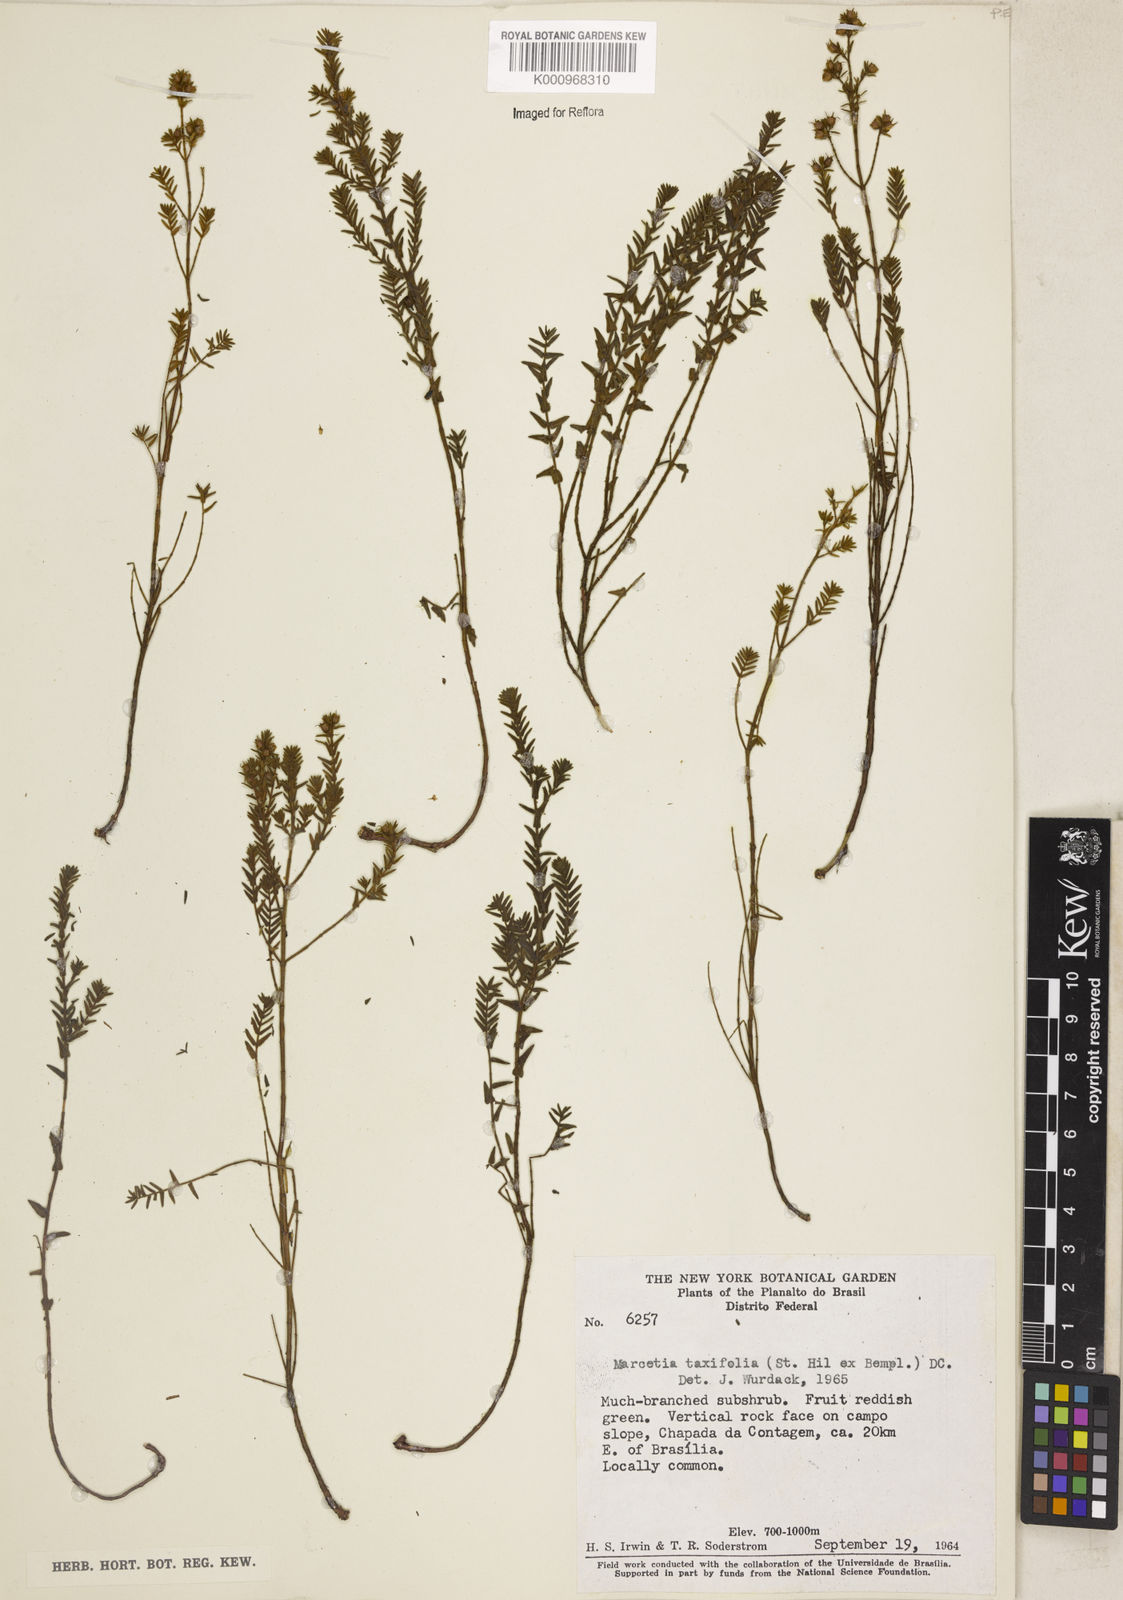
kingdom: Plantae
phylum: Tracheophyta
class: Magnoliopsida
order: Myrtales
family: Melastomataceae
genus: Marcetia
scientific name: Marcetia taxifolia
